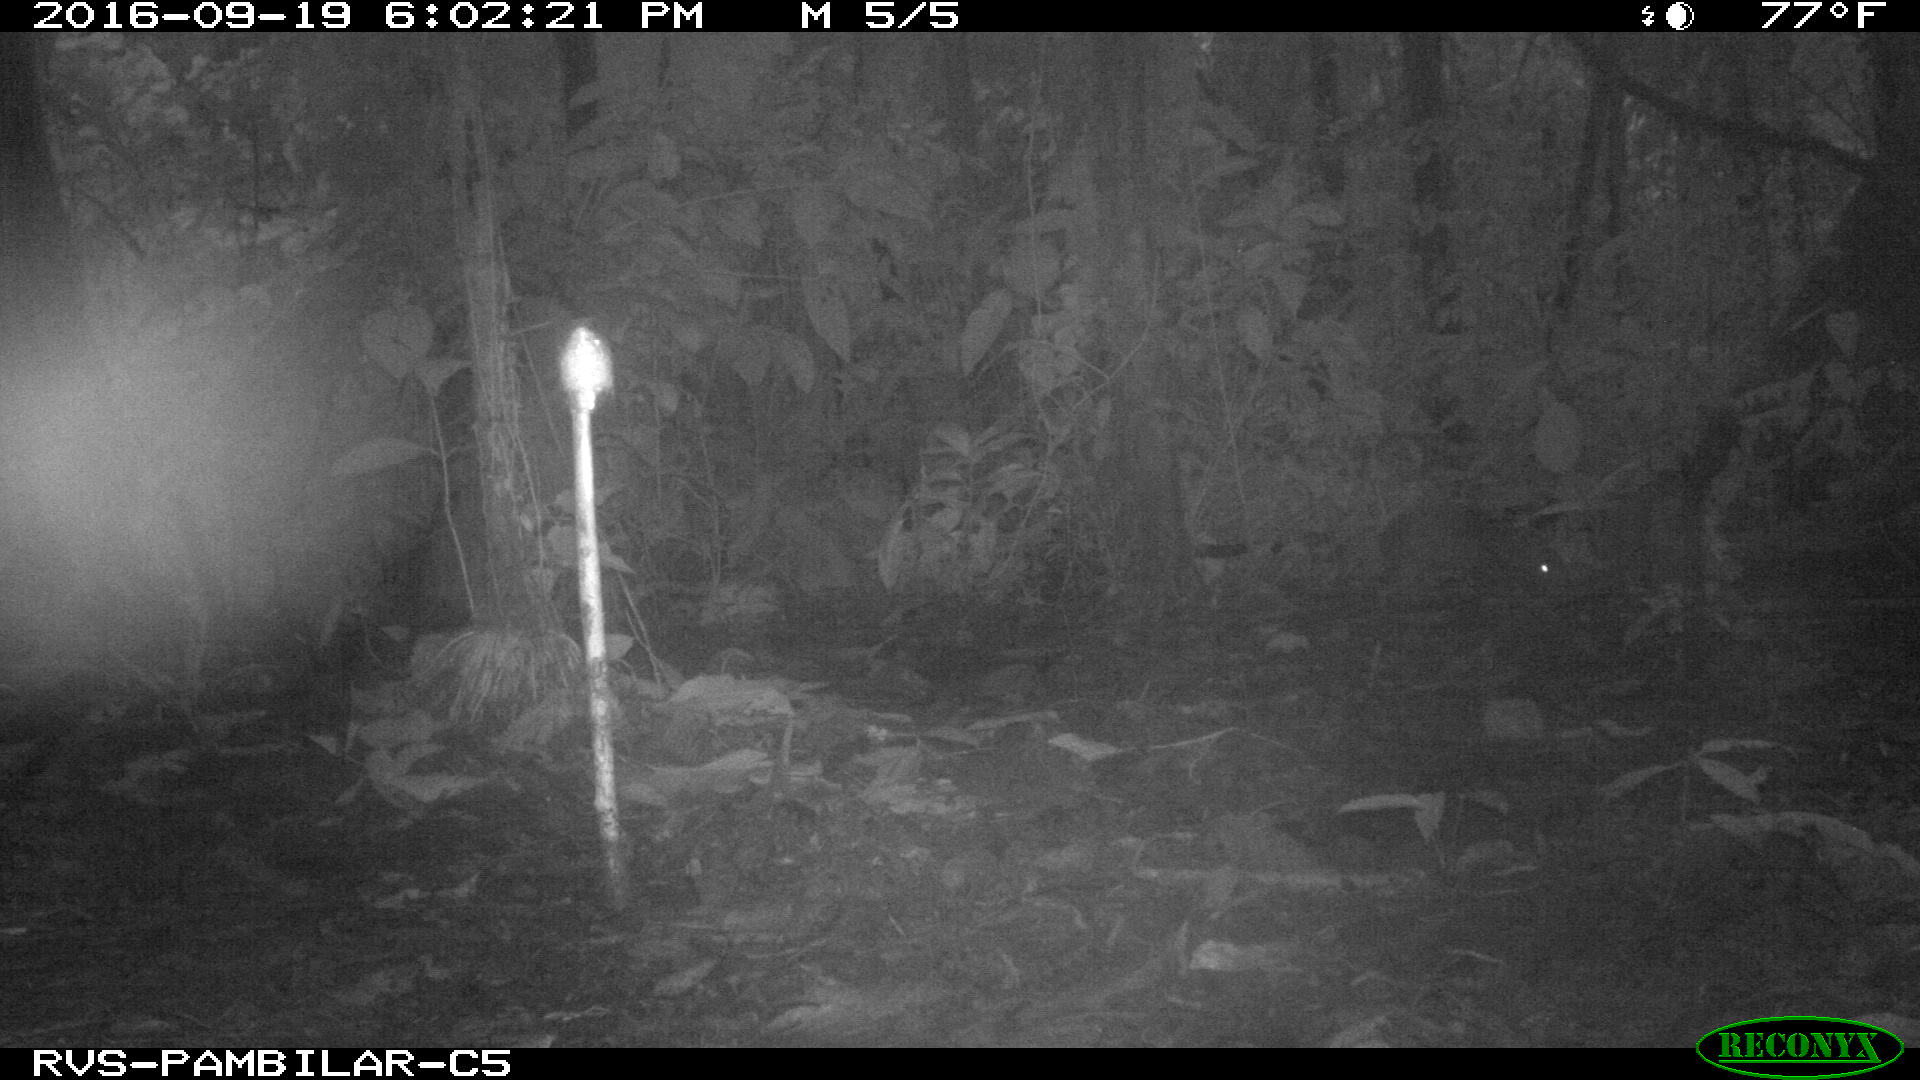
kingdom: Animalia
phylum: Chordata
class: Mammalia
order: Rodentia
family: Dasyproctidae
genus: Dasyprocta
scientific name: Dasyprocta punctata
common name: Central american agouti
